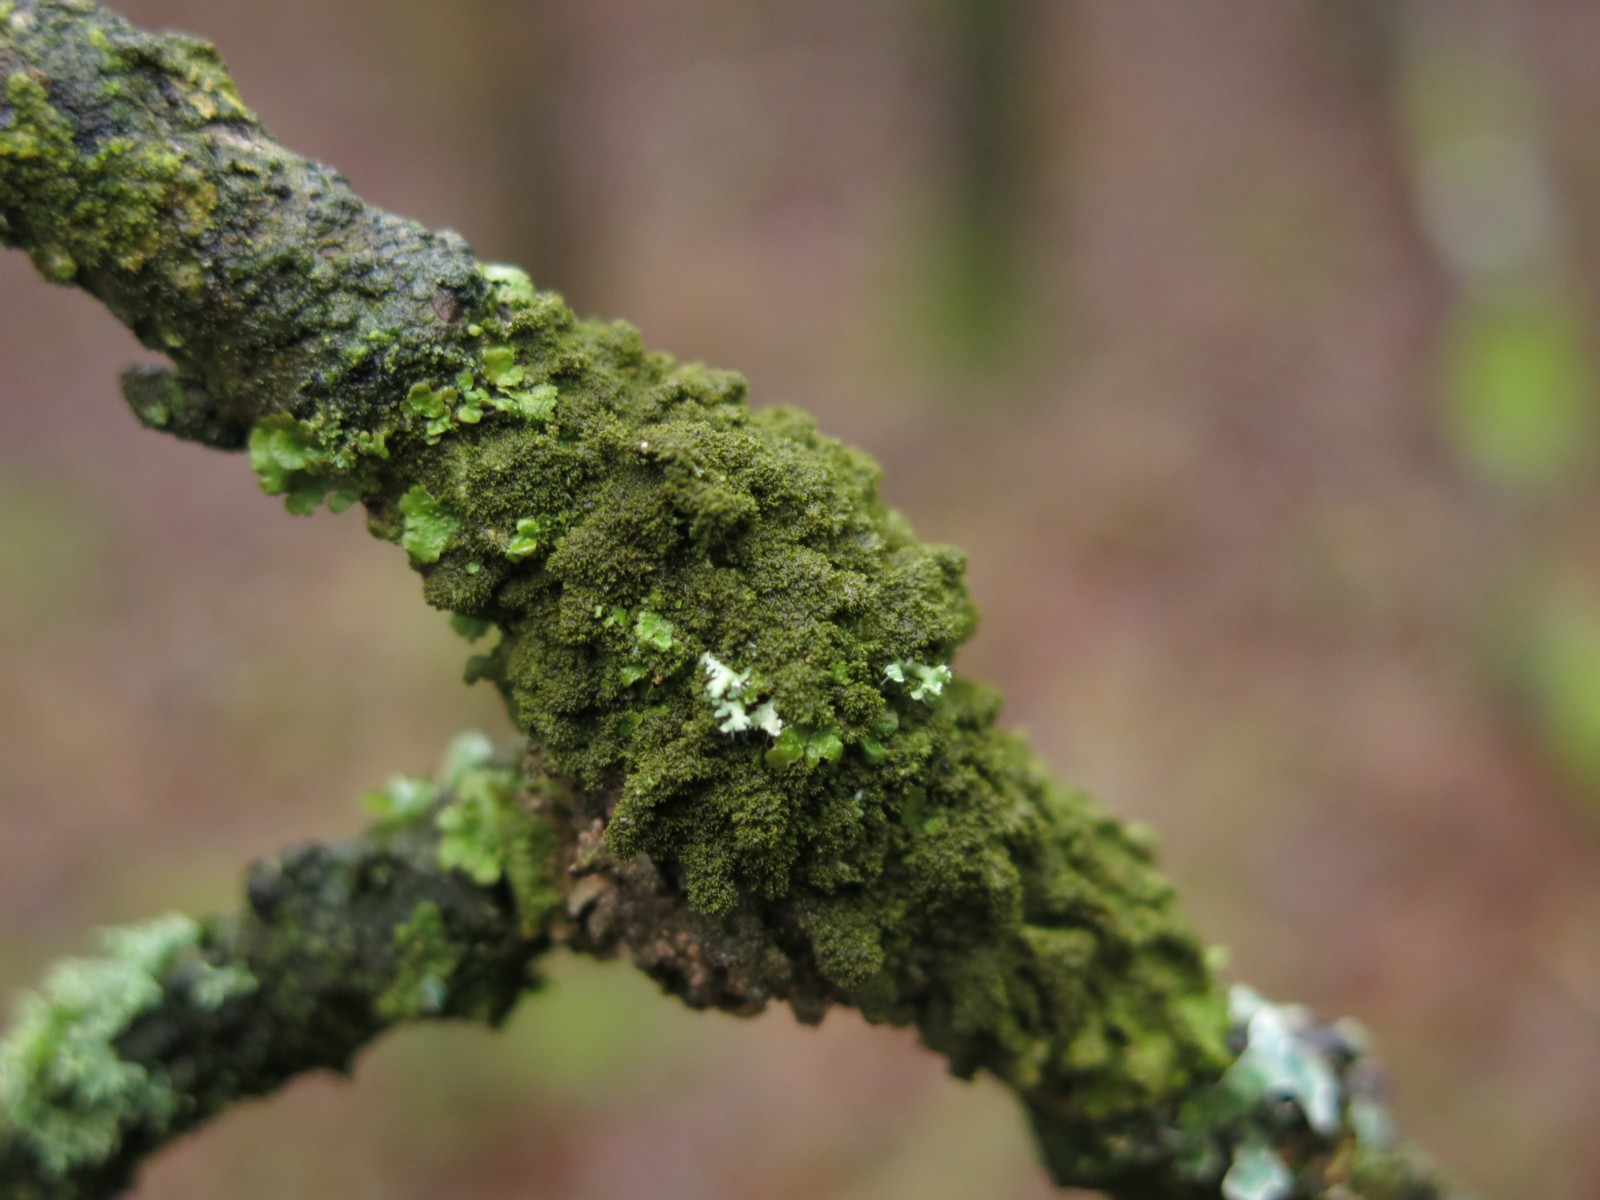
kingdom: Fungi
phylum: Ascomycota
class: Lecanoromycetes
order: Lecanorales
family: Parmeliaceae
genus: Melanelixia
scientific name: Melanelixia glabratula
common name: glinsende skållav
